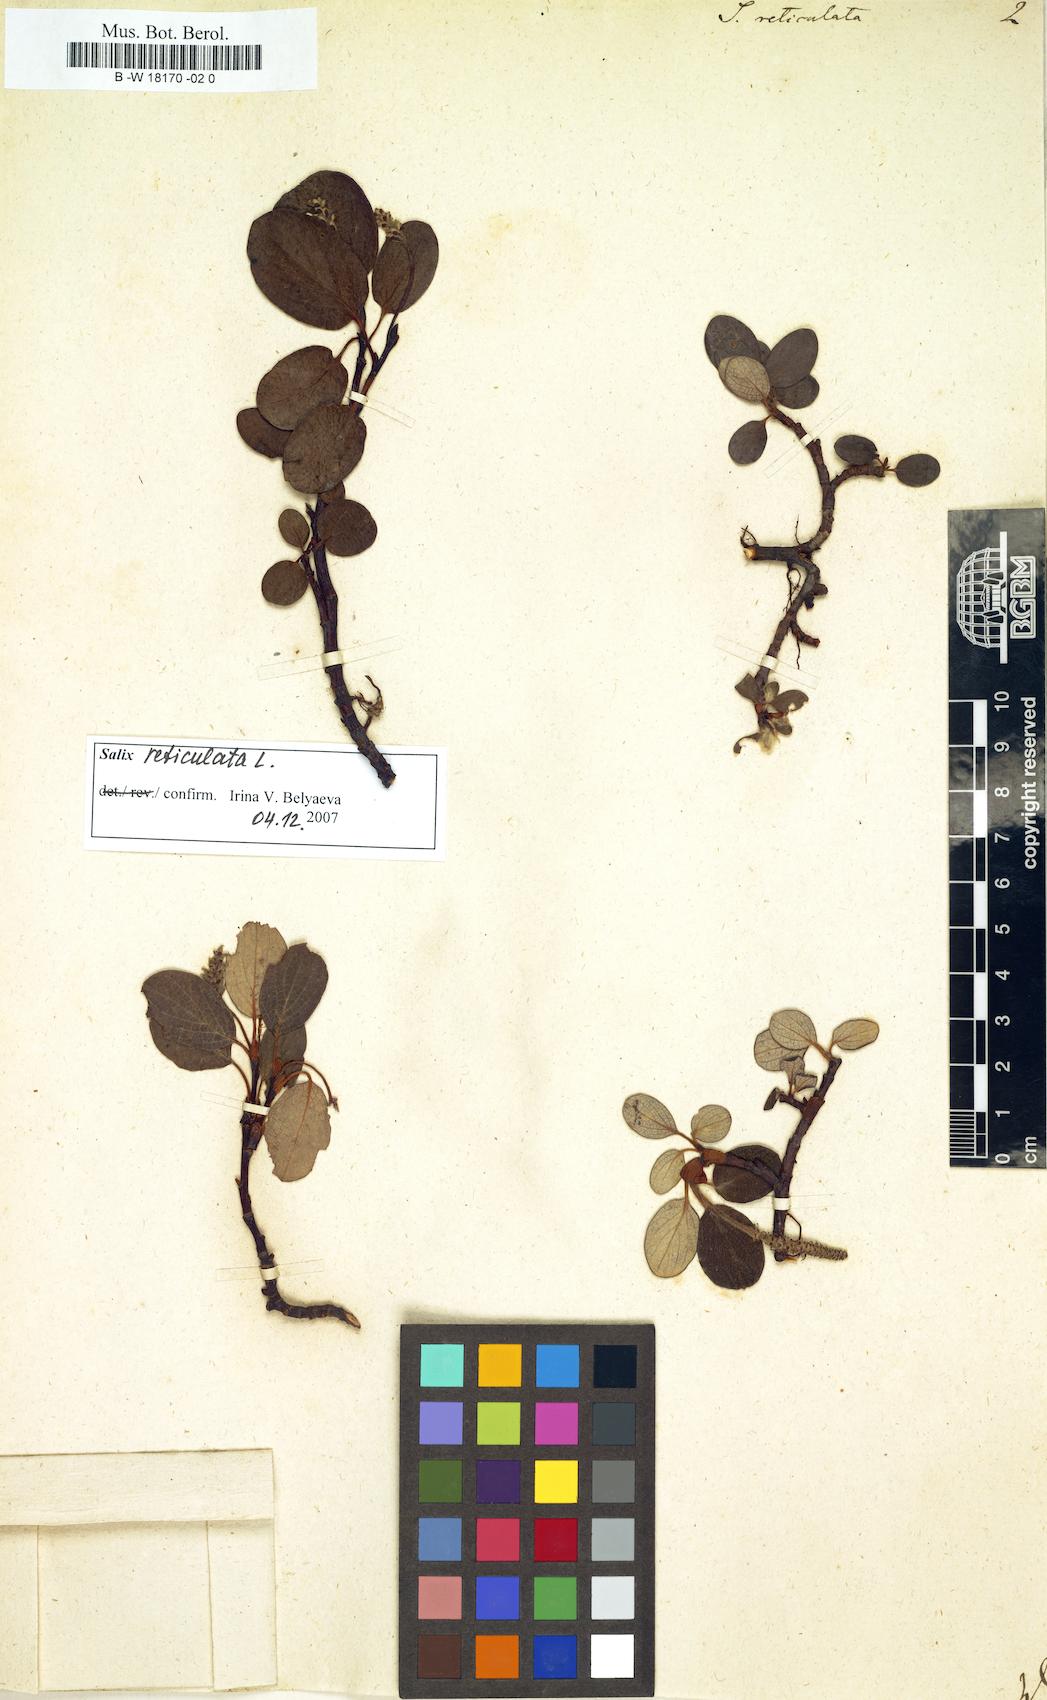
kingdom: Plantae
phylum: Tracheophyta
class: Magnoliopsida
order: Malpighiales
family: Salicaceae
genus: Salix
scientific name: Salix reticulata
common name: Net-leaved willow
